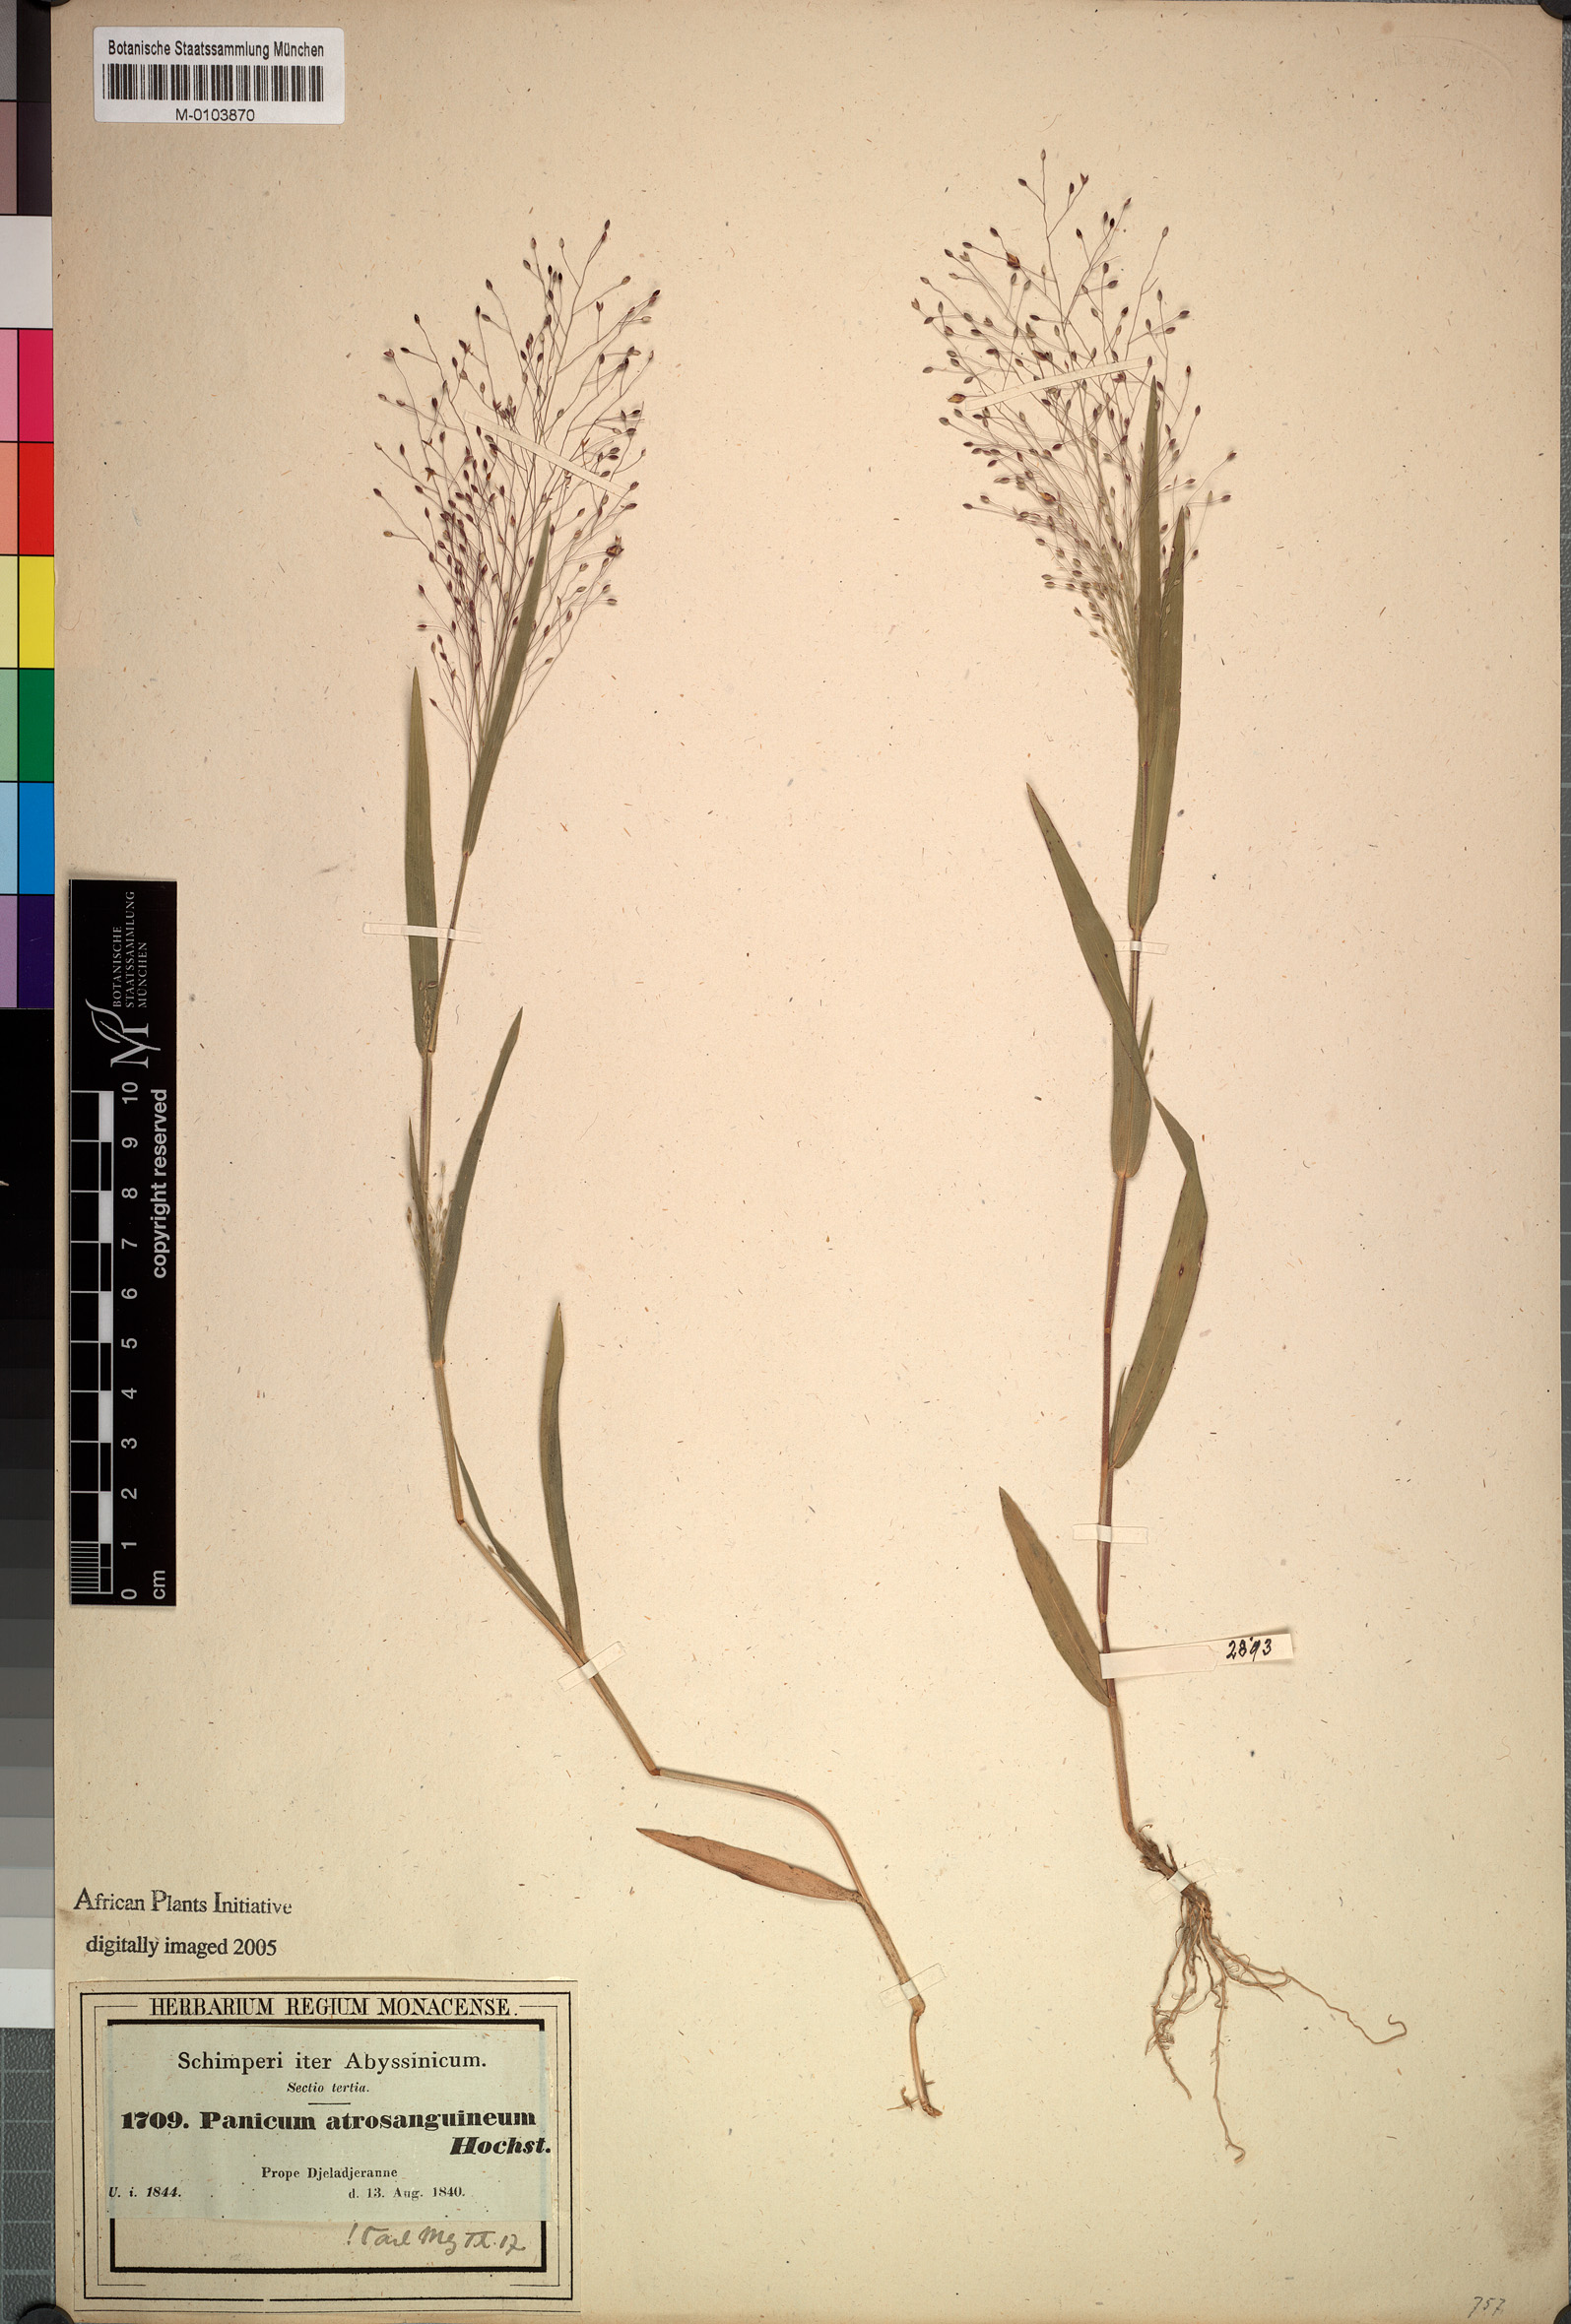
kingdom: Plantae
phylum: Tracheophyta
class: Liliopsida
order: Poales
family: Poaceae
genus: Panicum
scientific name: Panicum atrosanguineum
